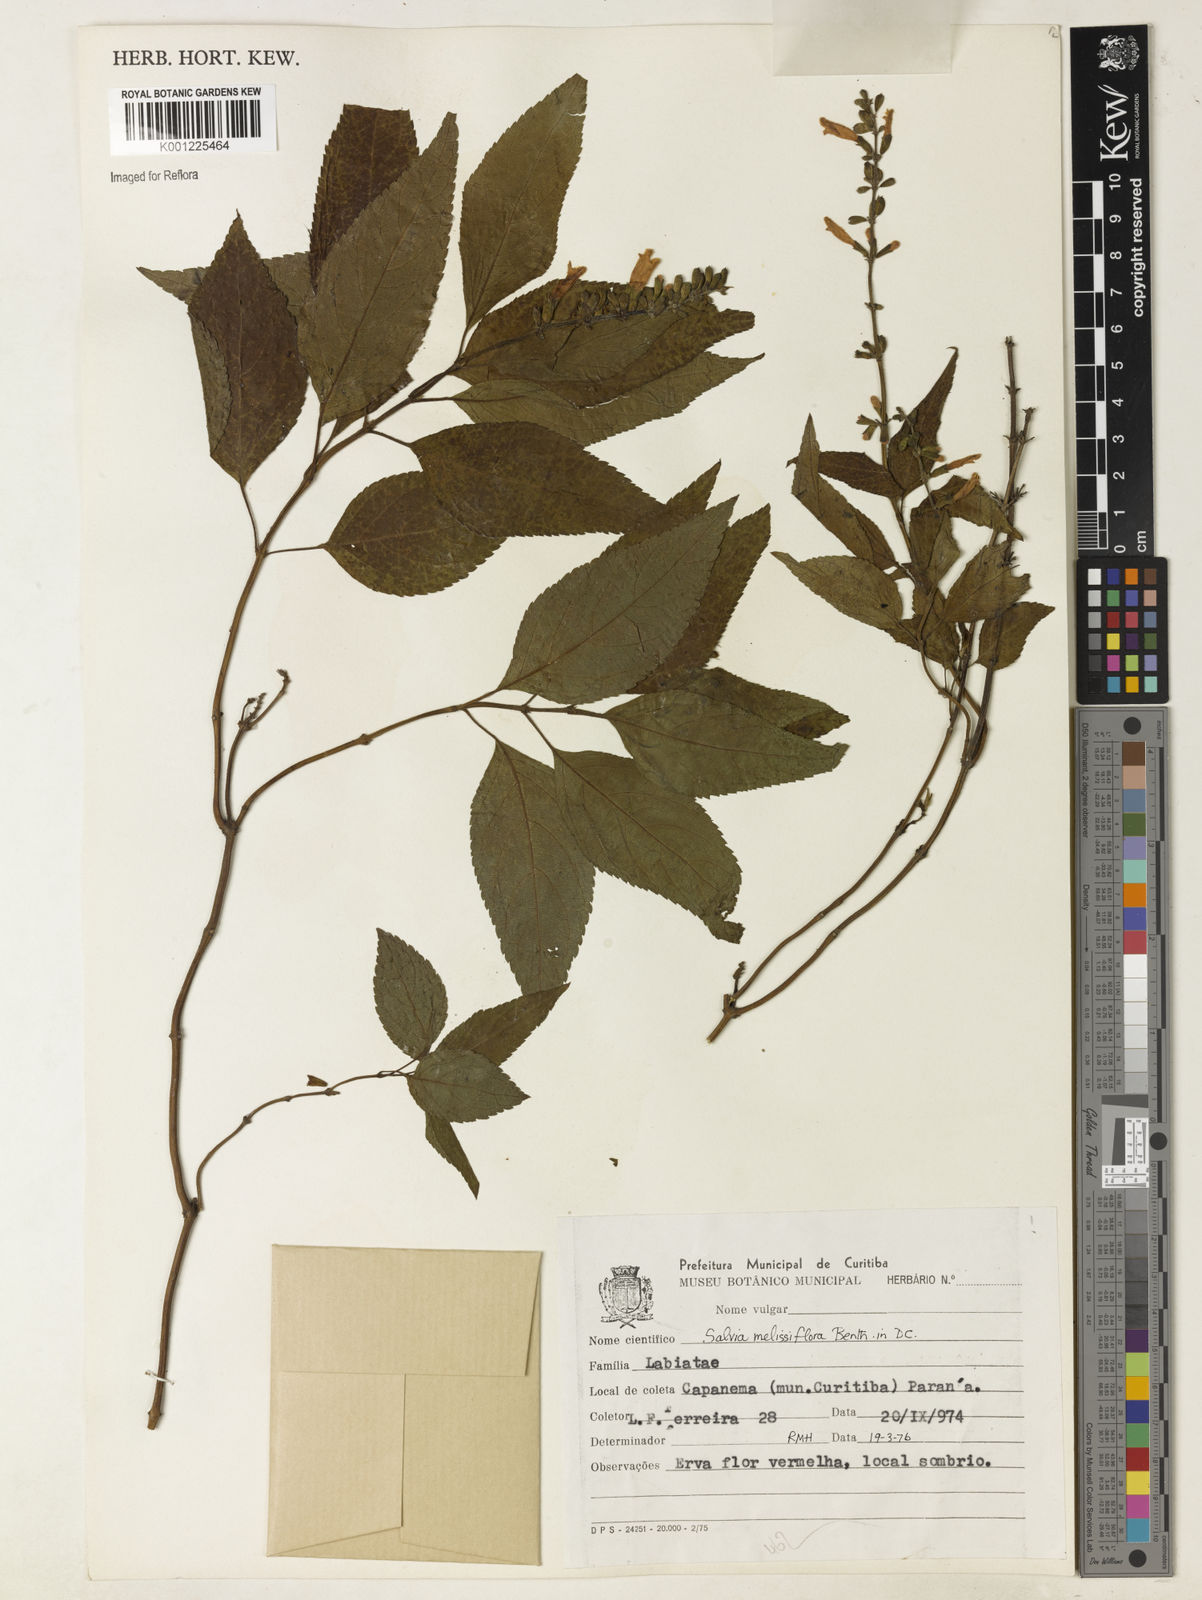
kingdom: Plantae
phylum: Tracheophyta
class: Magnoliopsida
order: Lamiales
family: Lamiaceae
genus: Salvia
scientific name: Salvia melissiflora
